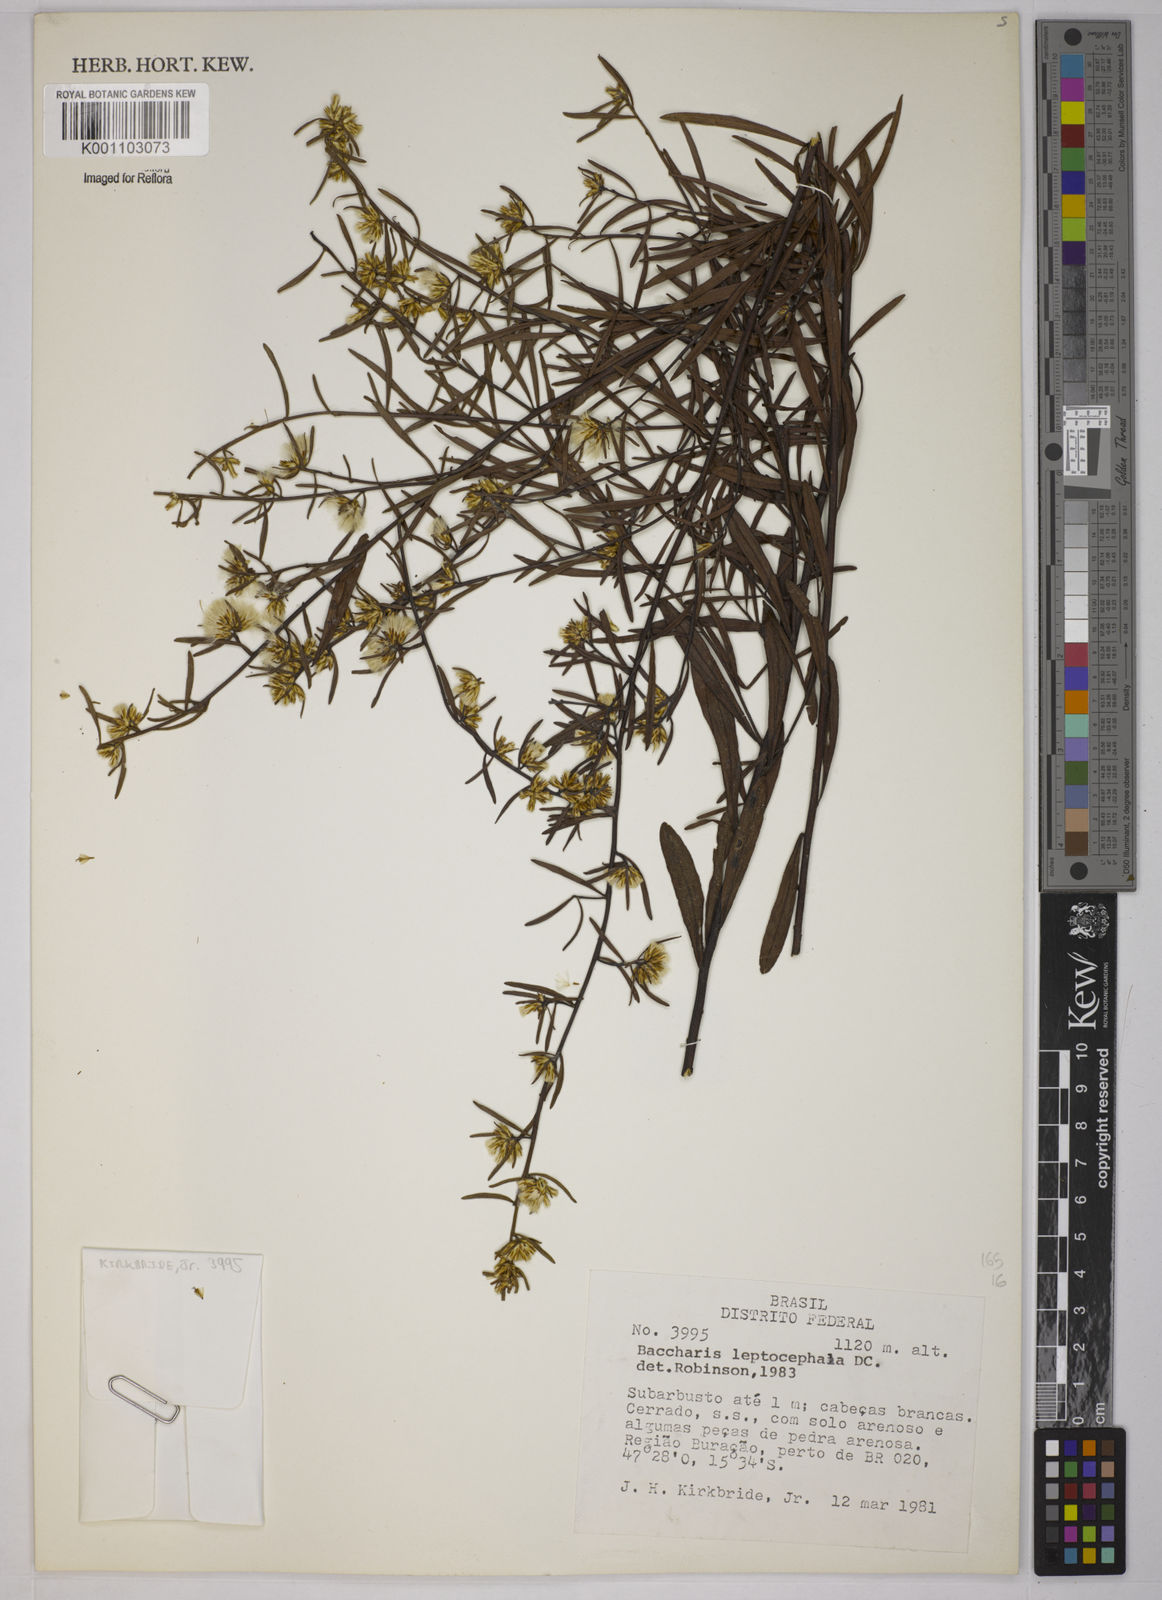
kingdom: Plantae
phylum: Tracheophyta
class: Magnoliopsida
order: Asterales
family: Asteraceae
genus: Baccharis
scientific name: Baccharis leptocephala
